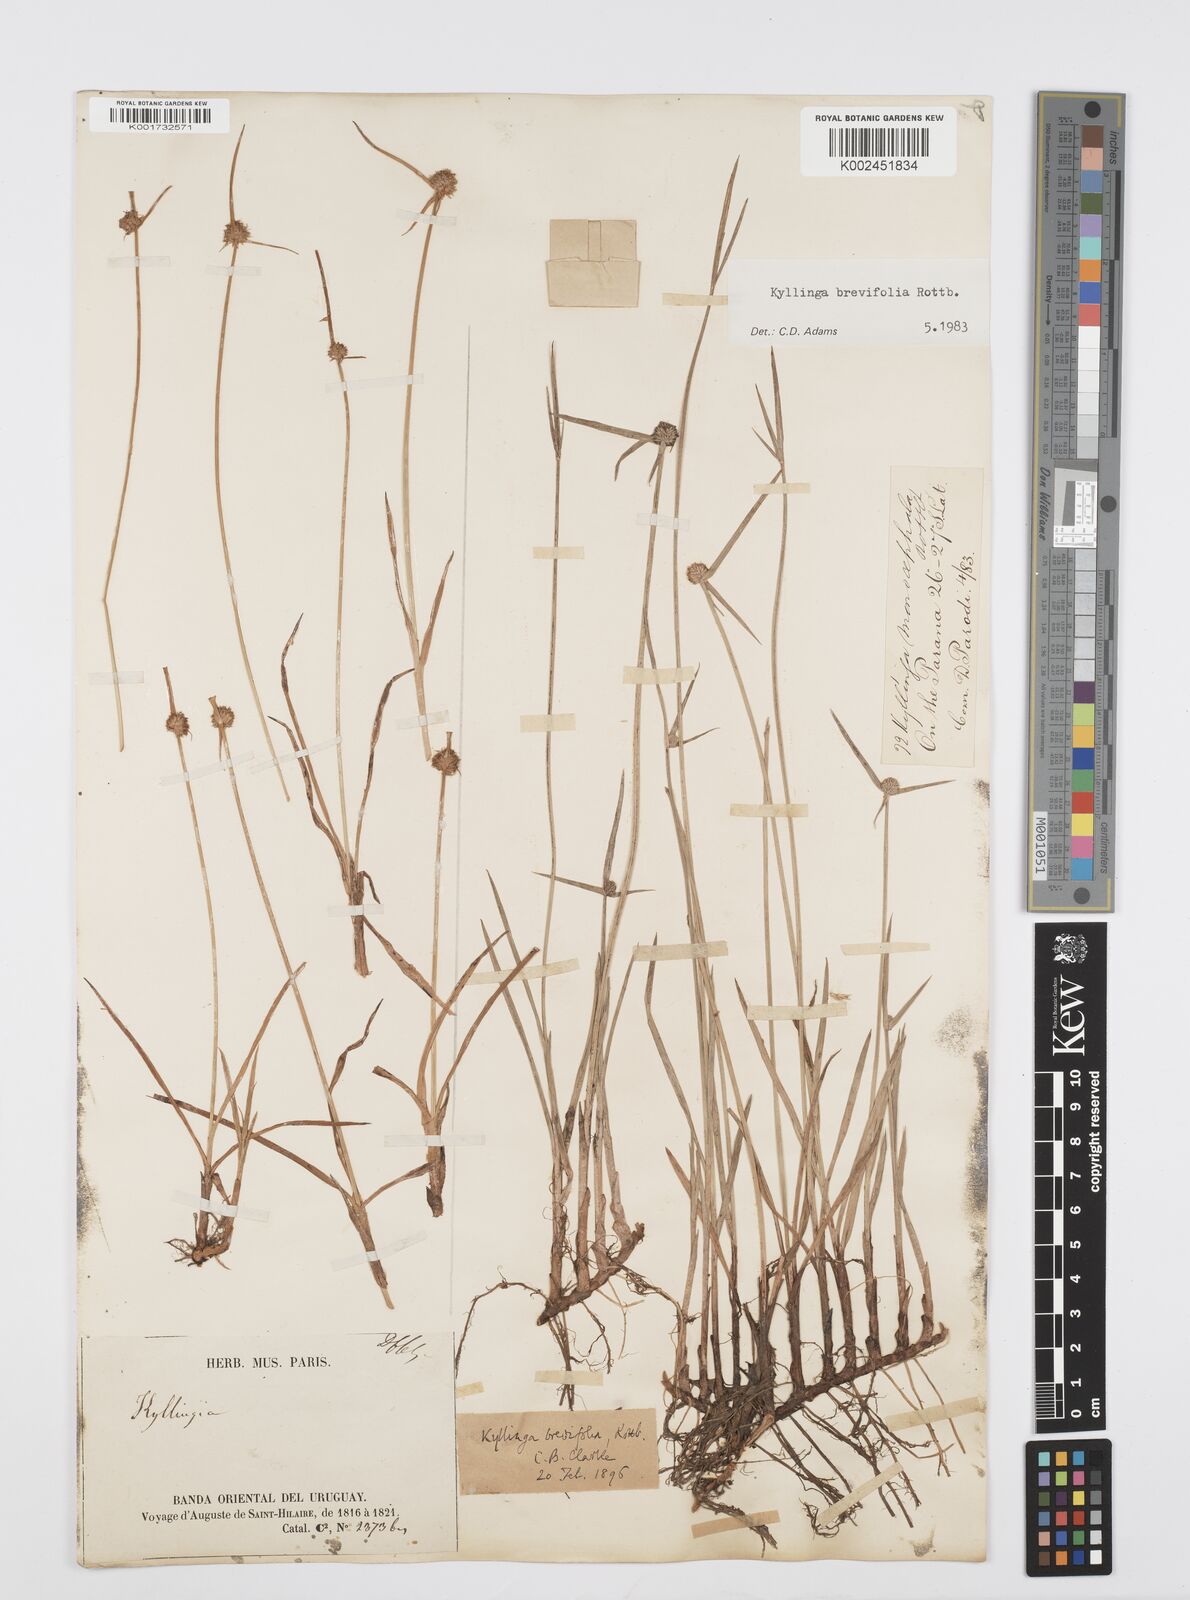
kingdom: Plantae
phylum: Tracheophyta
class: Liliopsida
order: Poales
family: Cyperaceae
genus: Cyperus
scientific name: Cyperus brevifolius
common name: Globe kyllinga
